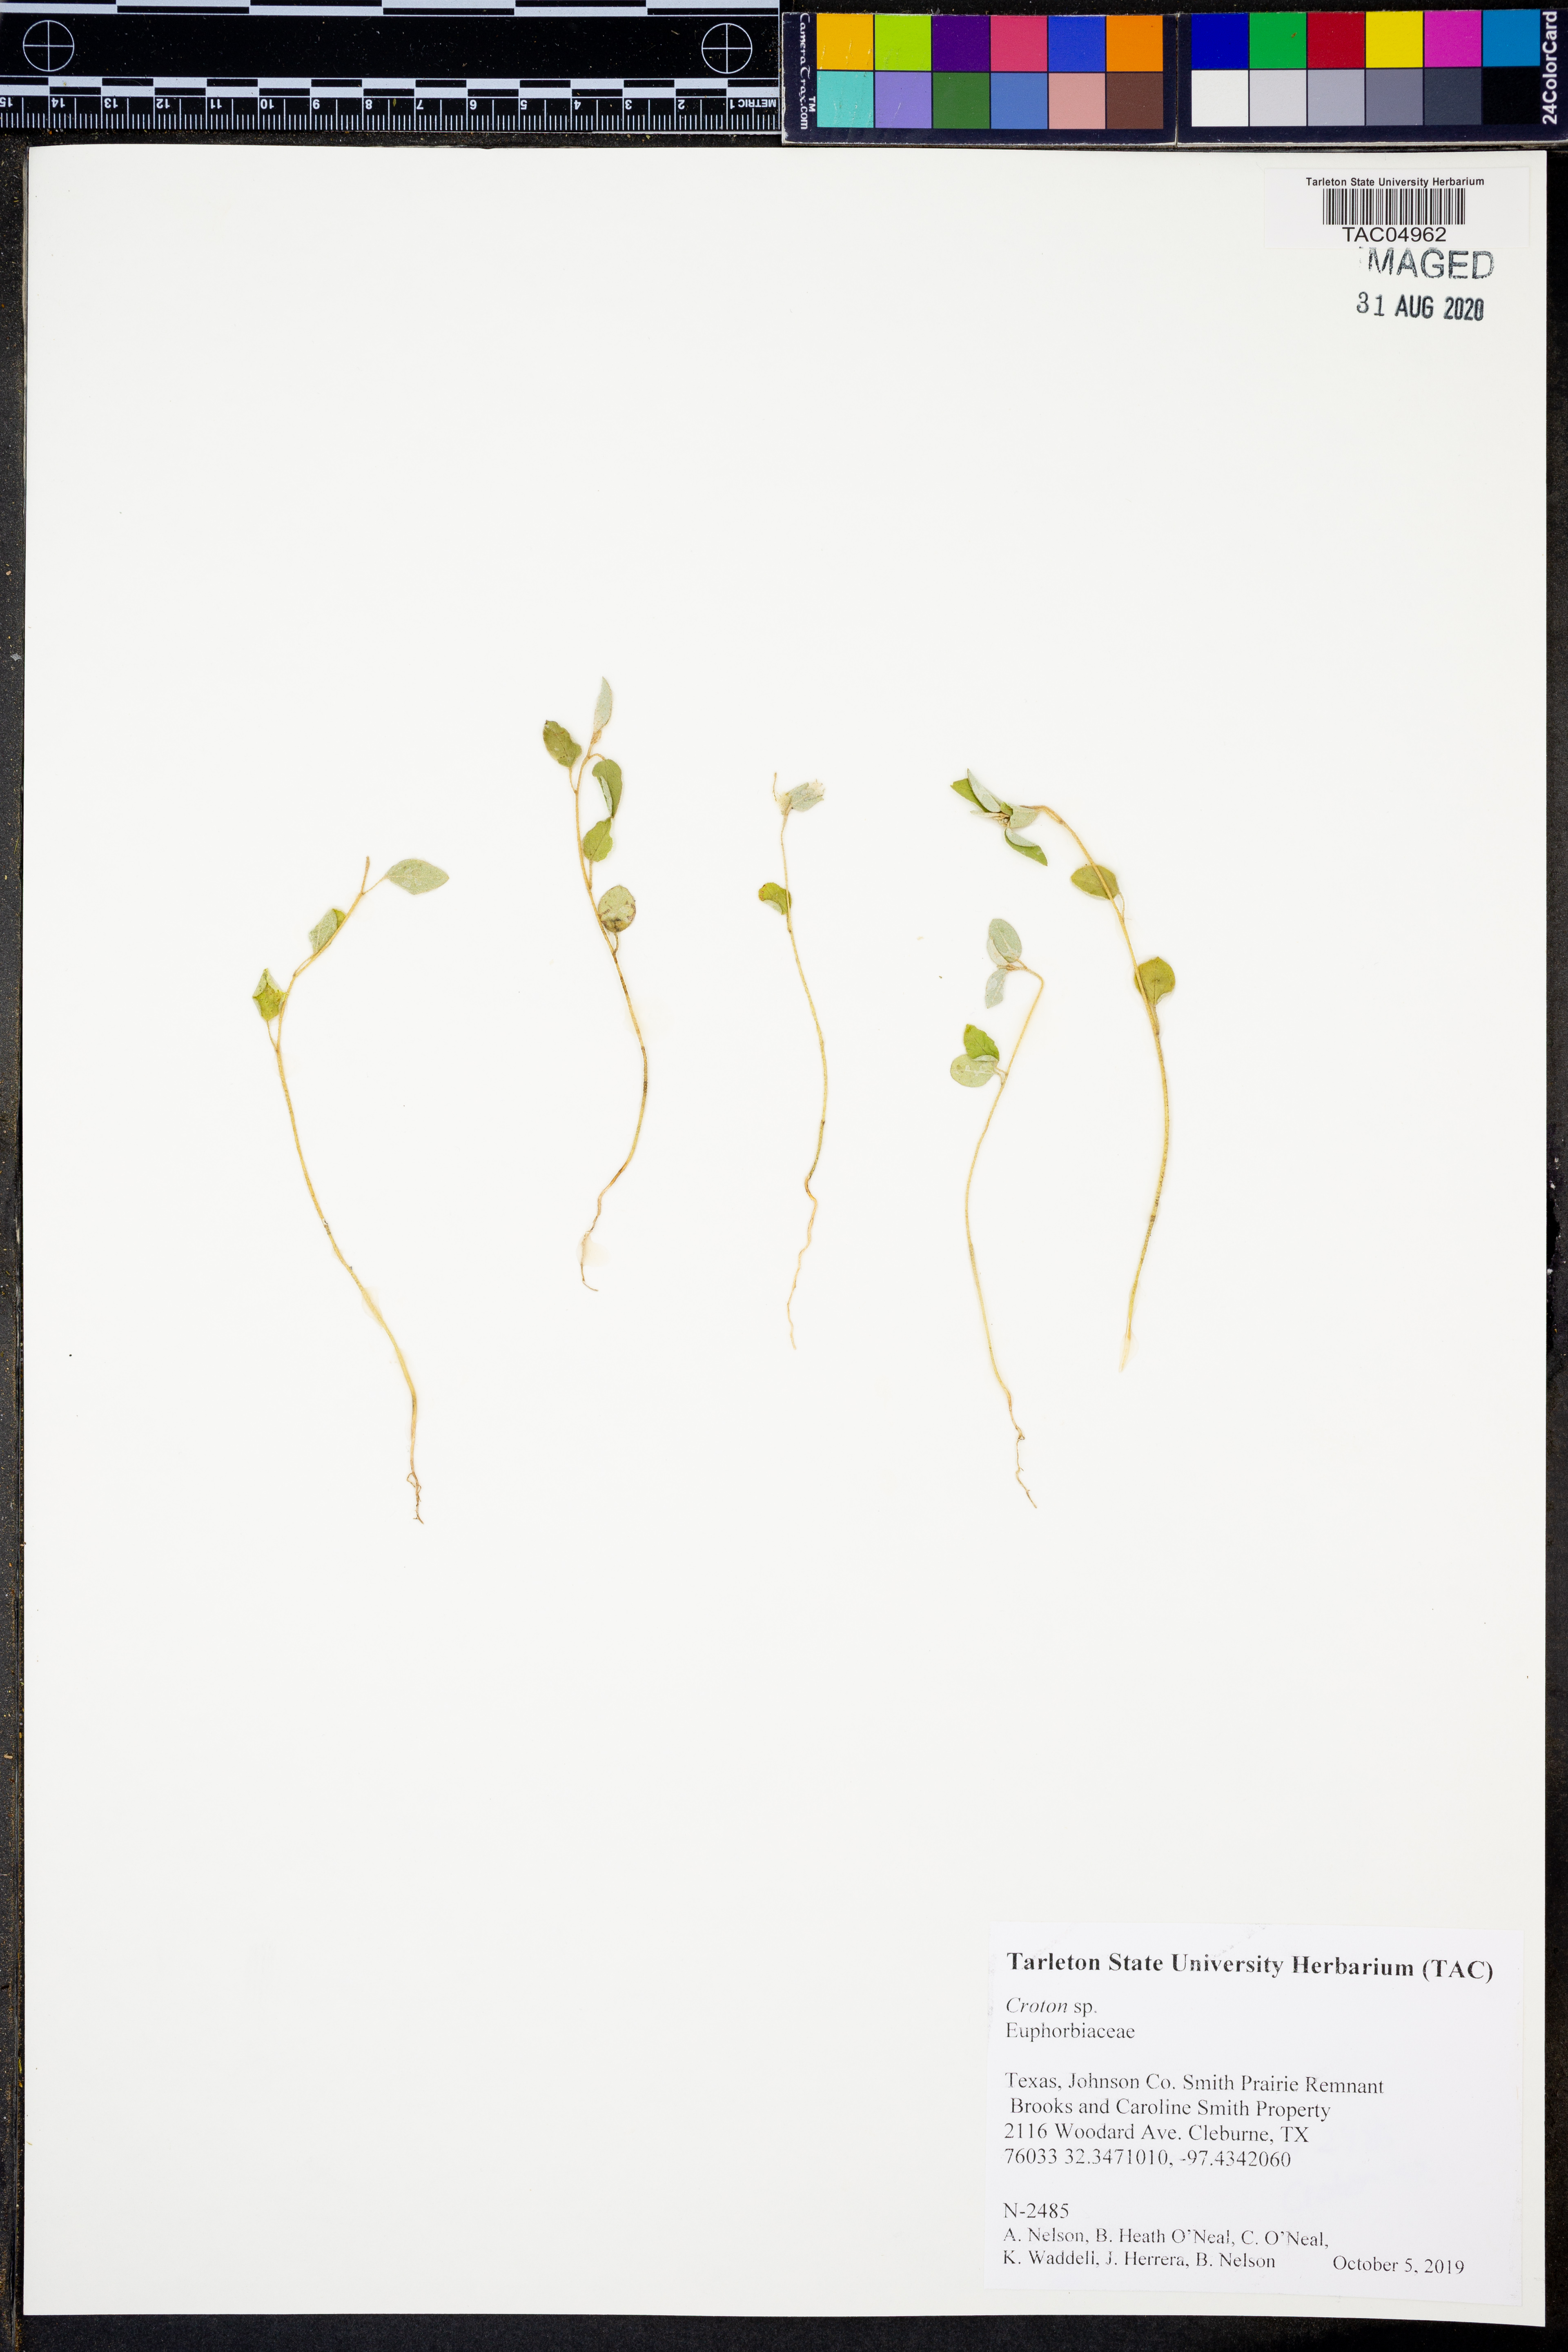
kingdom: Plantae
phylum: Tracheophyta
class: Magnoliopsida
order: Malpighiales
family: Euphorbiaceae
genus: Croton
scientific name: Croton
